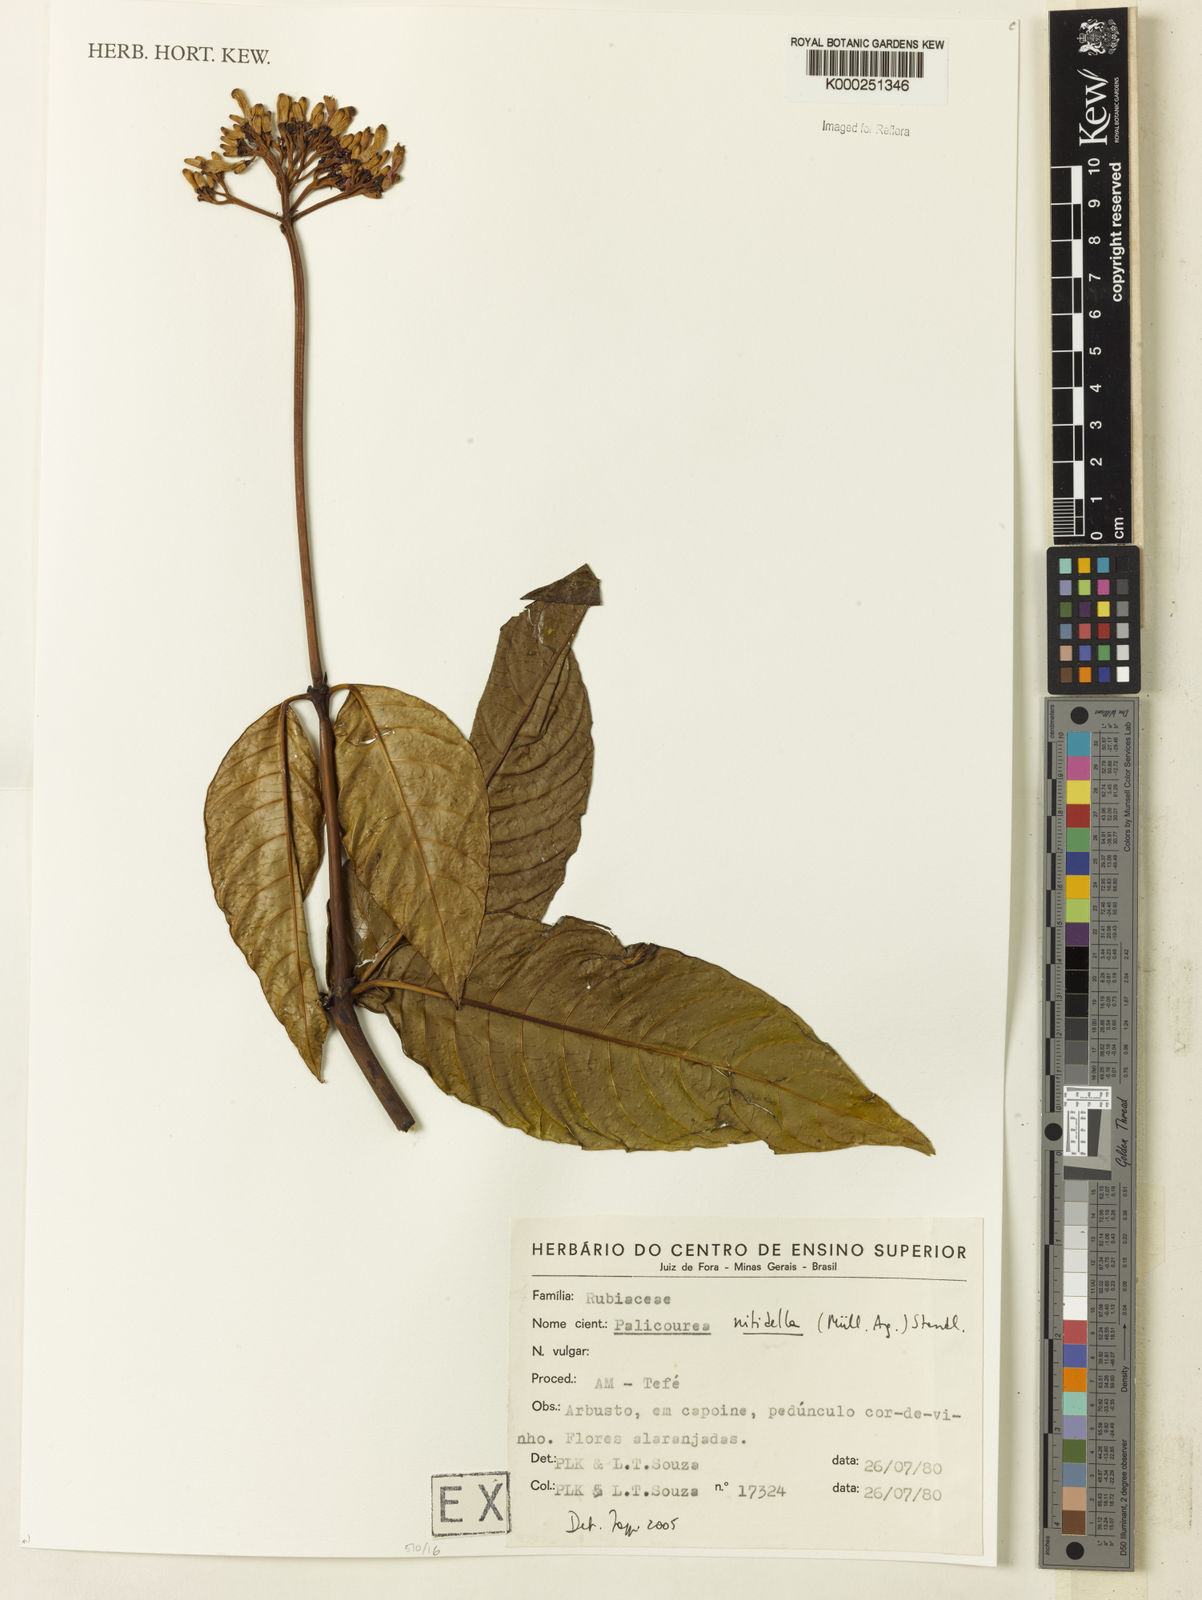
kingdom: Plantae
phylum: Tracheophyta
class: Magnoliopsida
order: Gentianales
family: Rubiaceae
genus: Palicourea
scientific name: Palicourea nitidella
